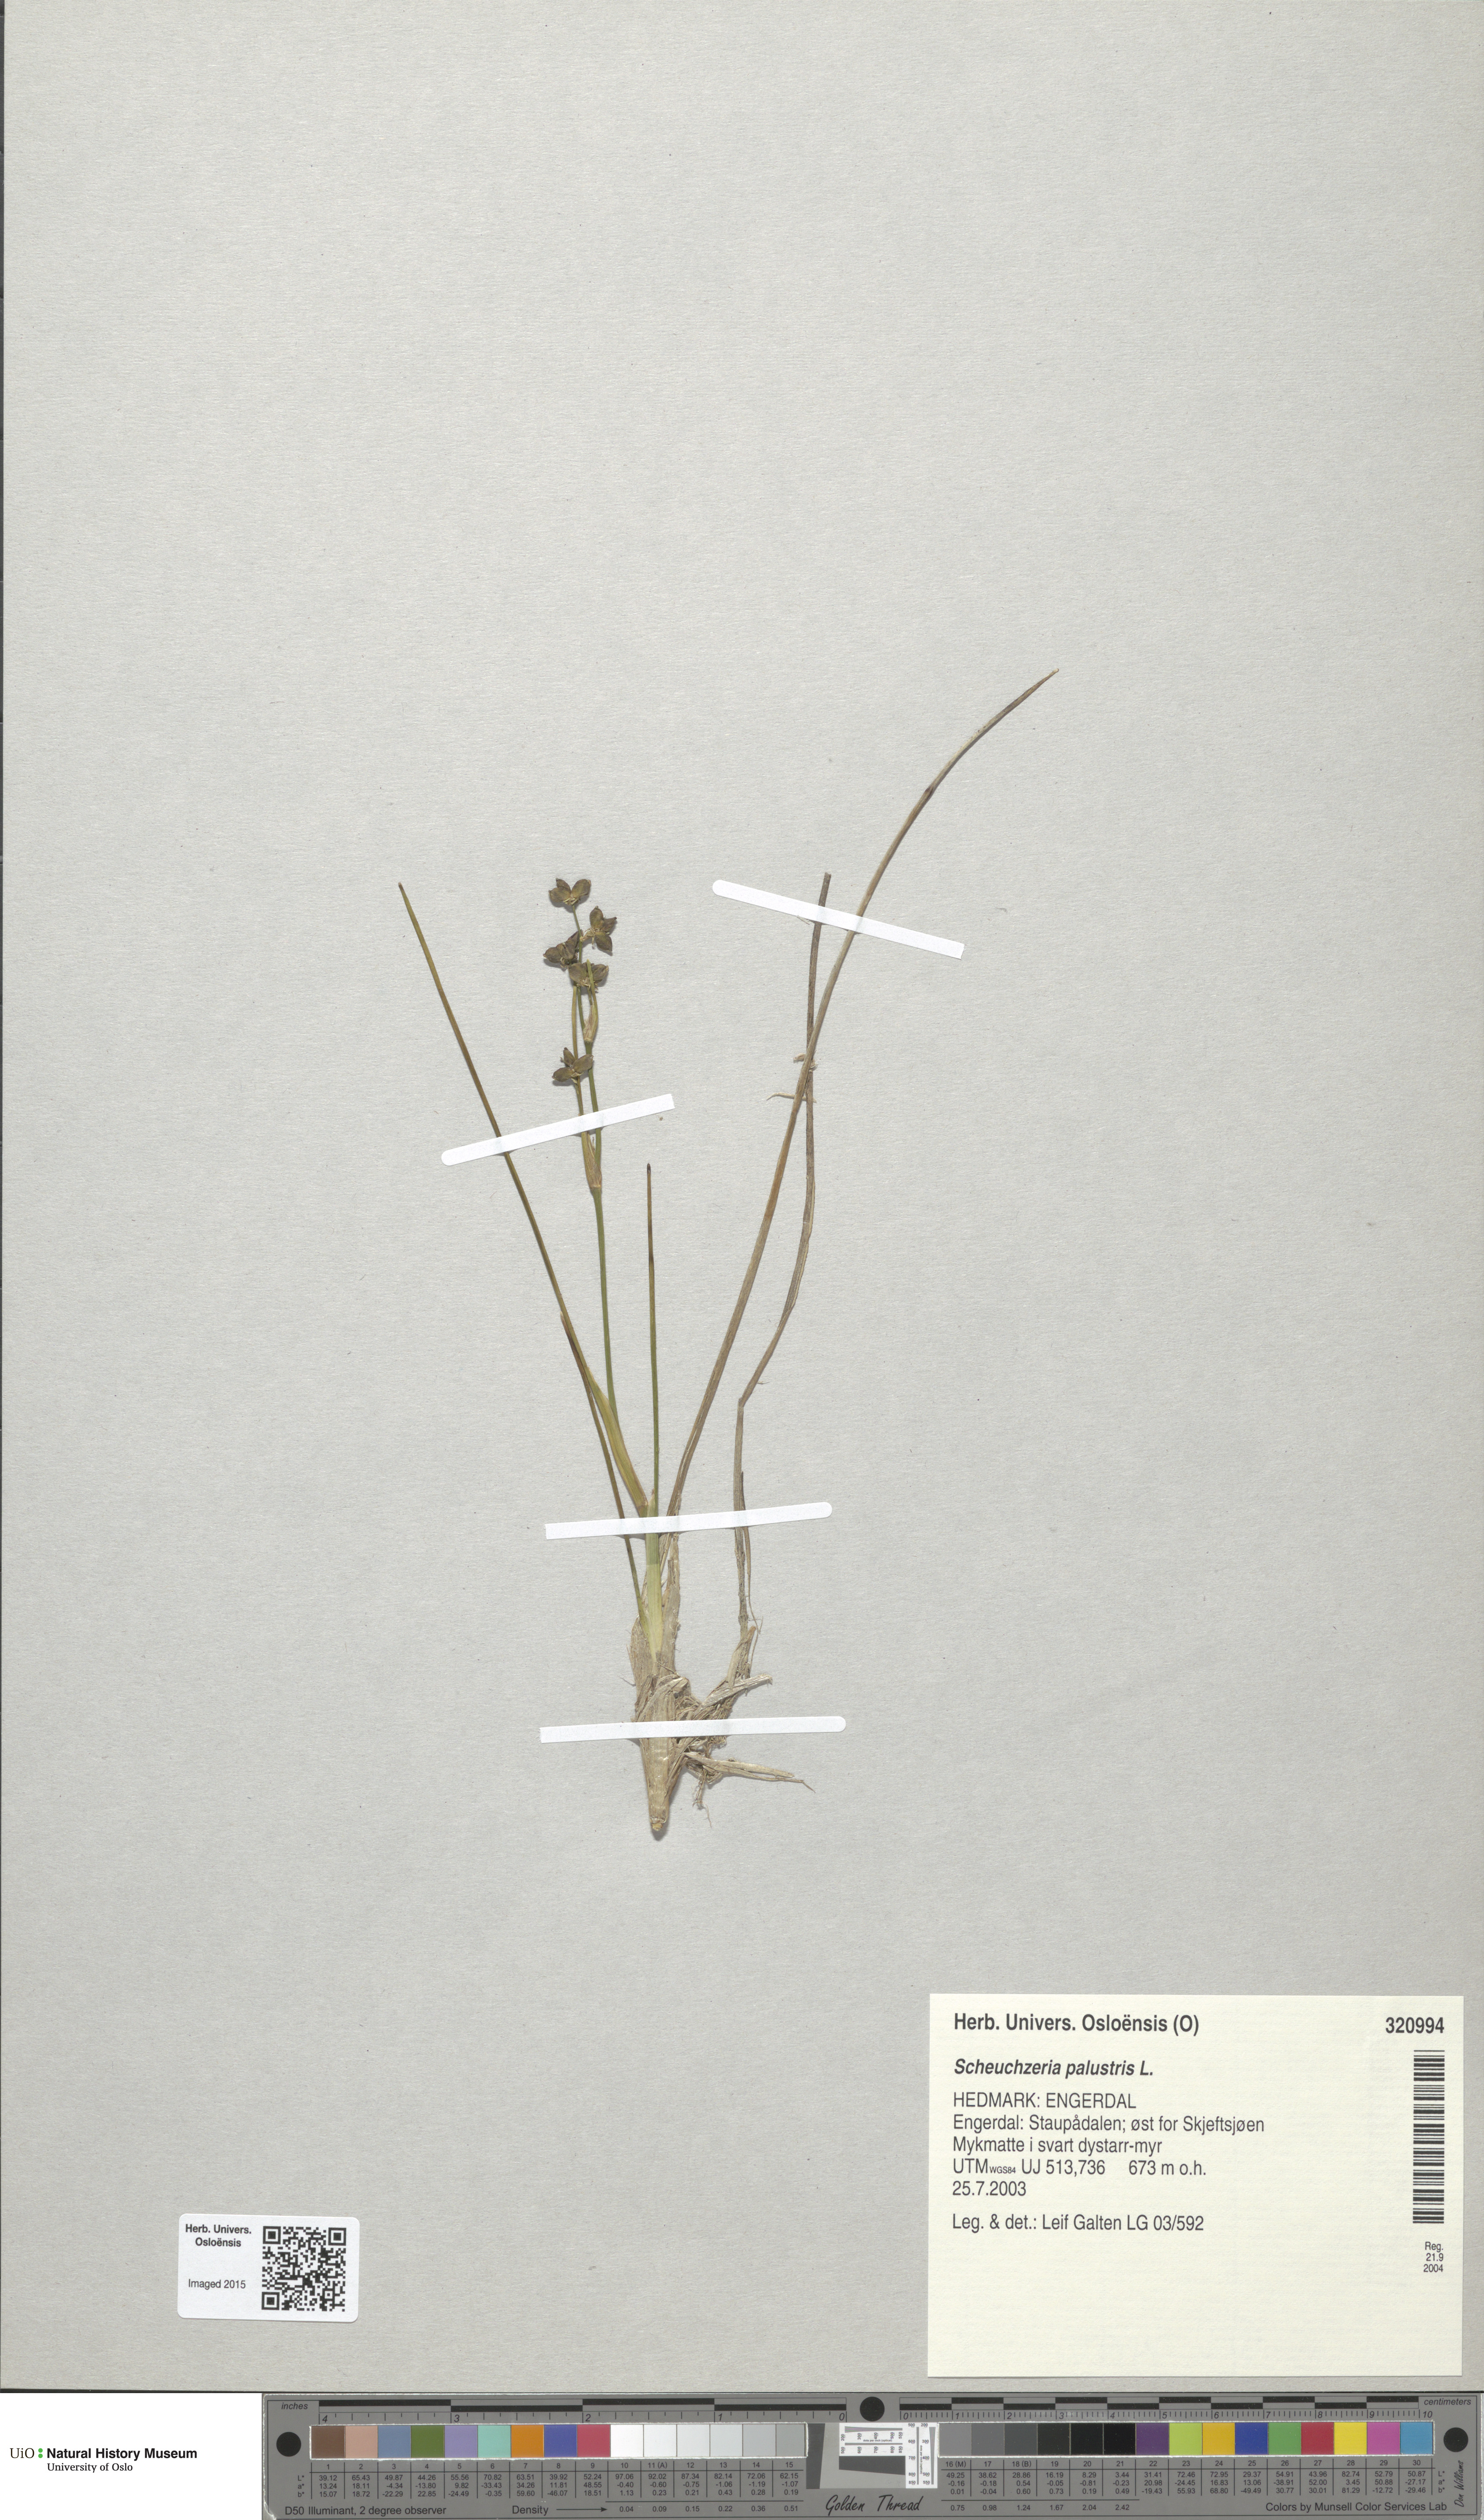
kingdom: Plantae
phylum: Tracheophyta
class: Liliopsida
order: Alismatales
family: Scheuchzeriaceae
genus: Scheuchzeria
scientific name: Scheuchzeria palustris
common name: Rannoch-rush
